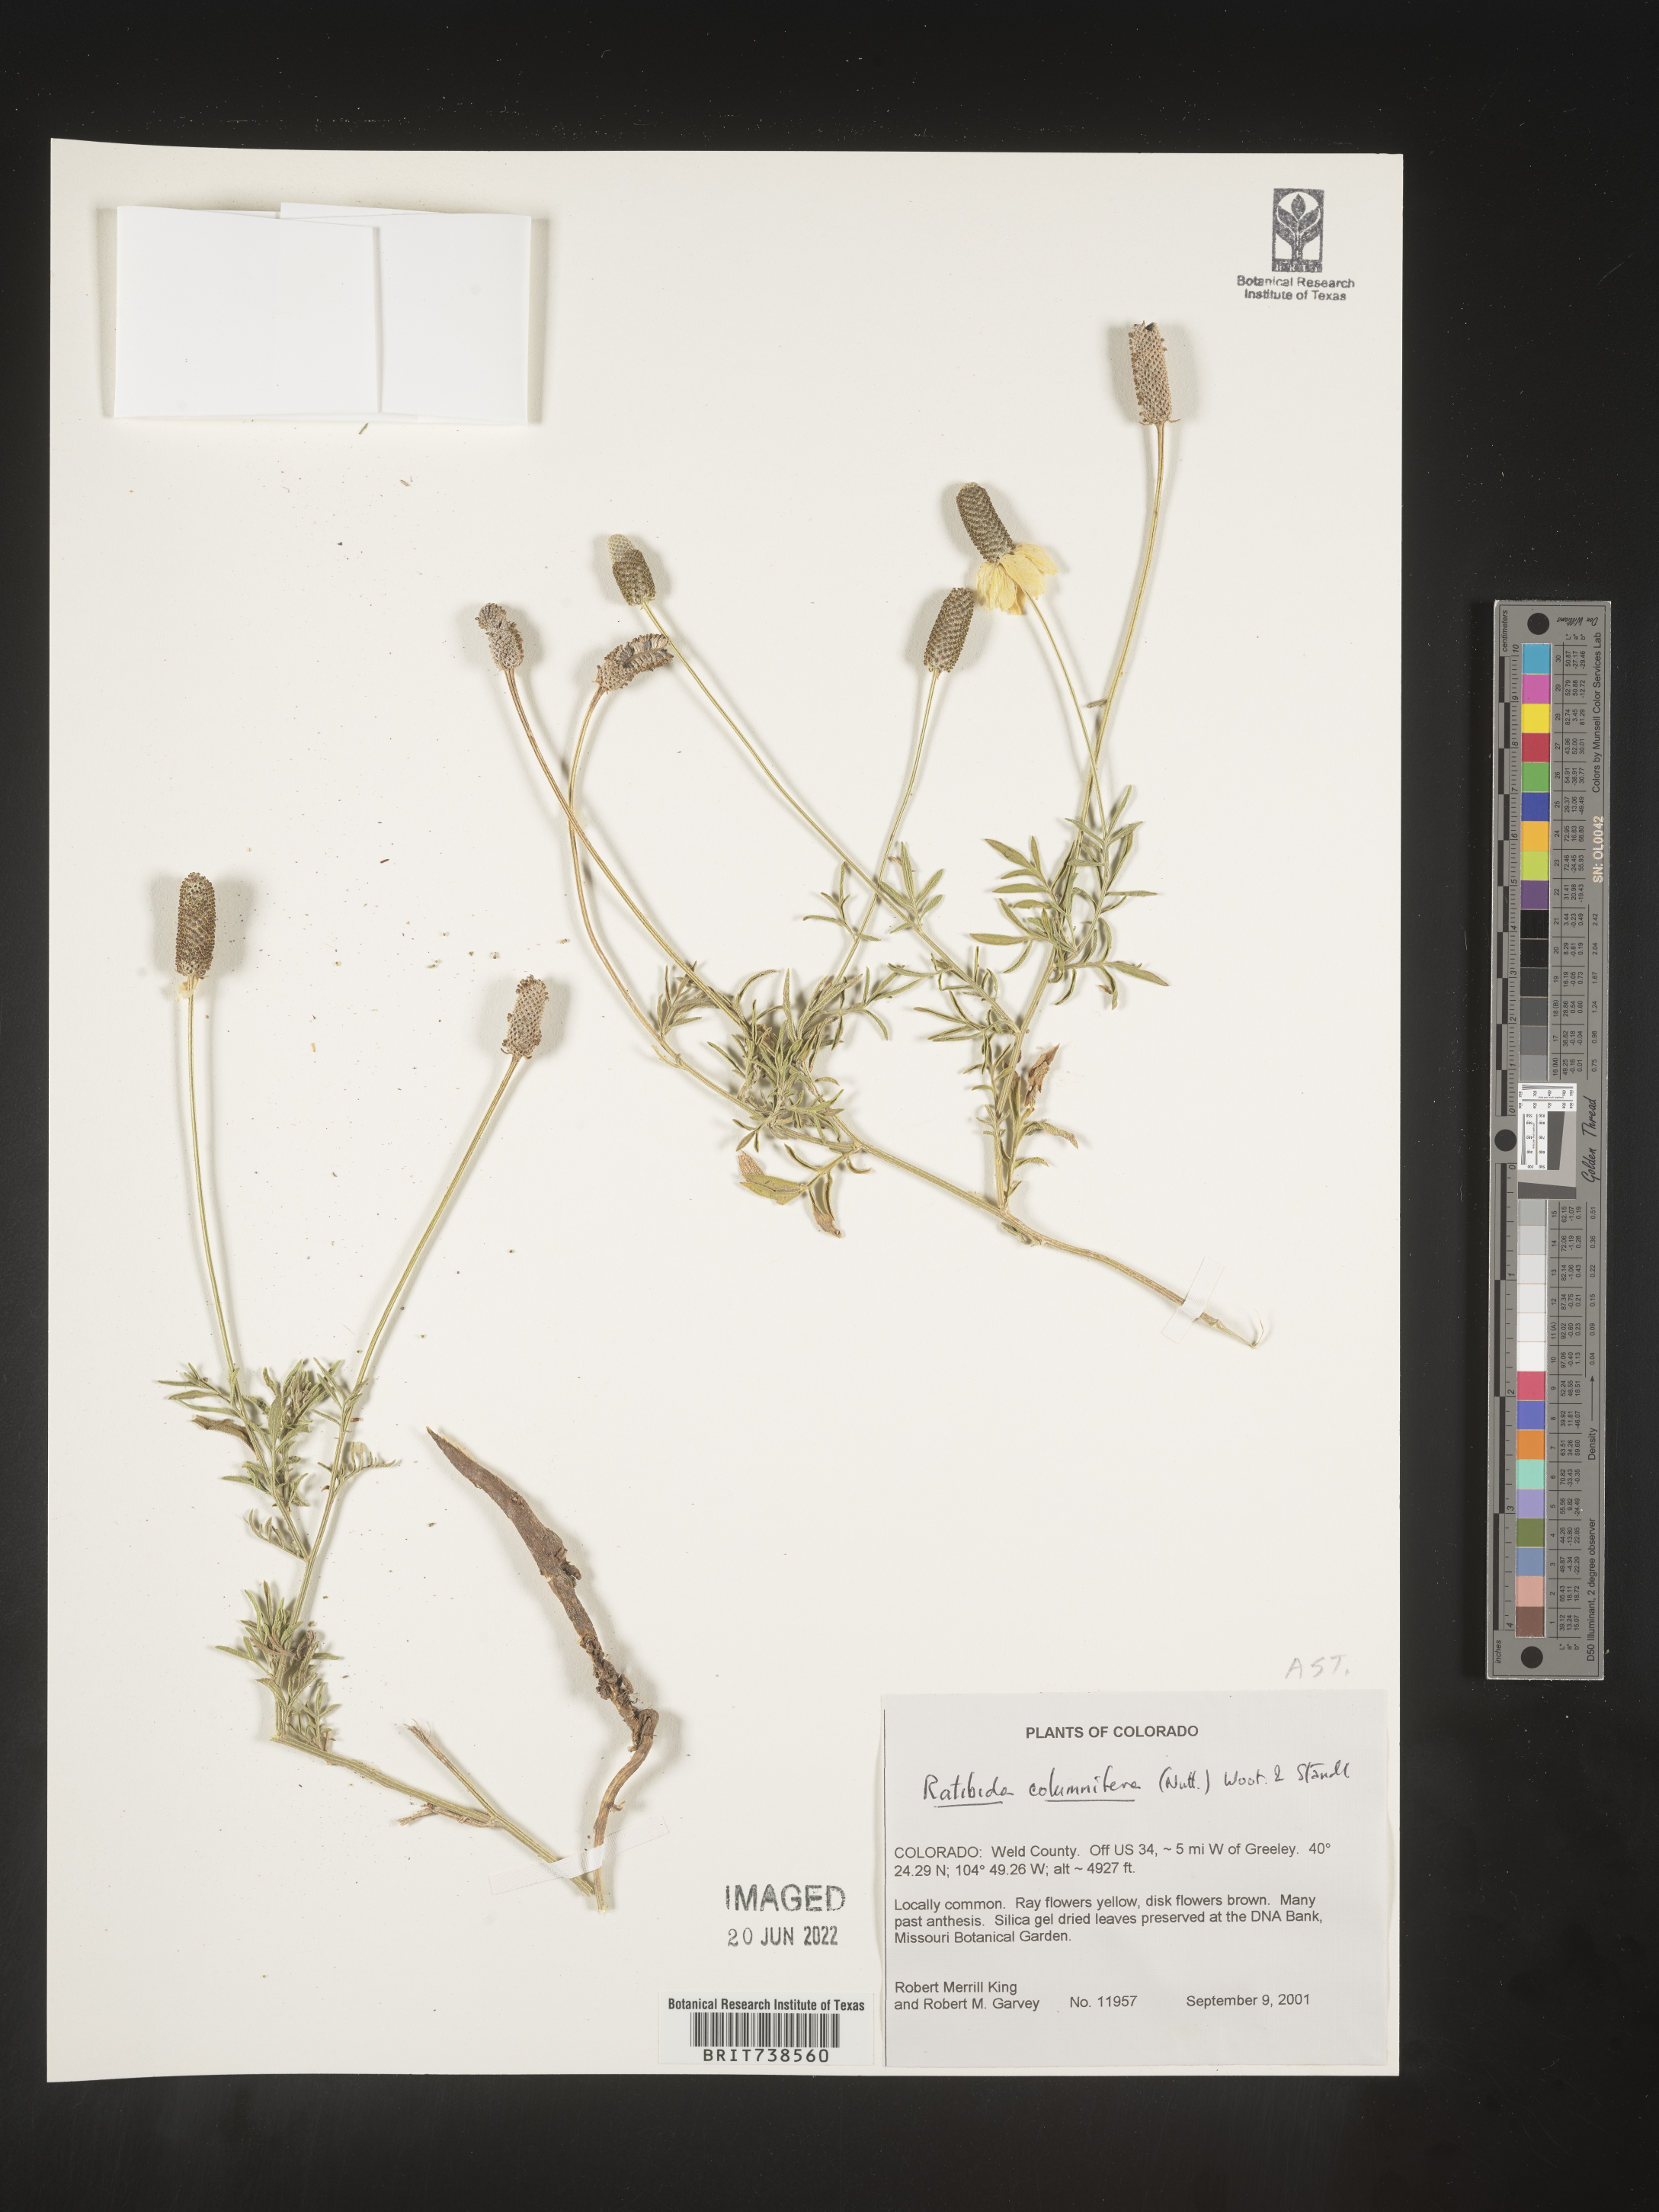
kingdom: Plantae
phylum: Tracheophyta
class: Magnoliopsida
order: Asterales
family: Asteraceae
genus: Ratibida
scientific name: Ratibida columnifera
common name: Prairie coneflower
